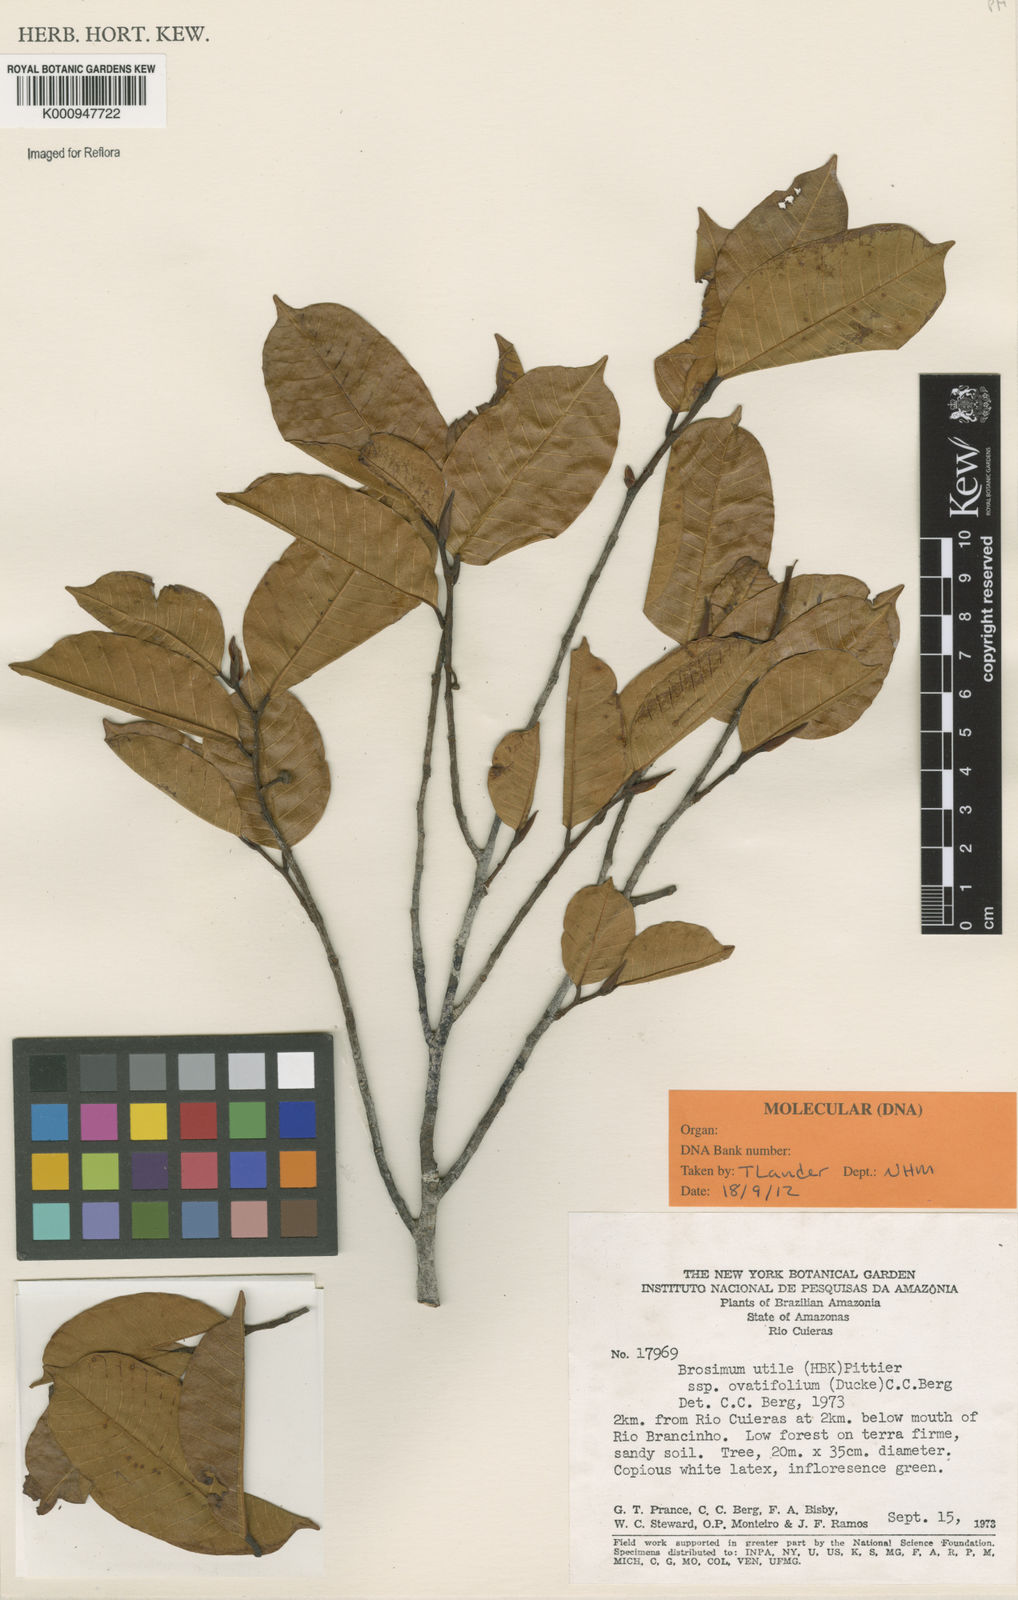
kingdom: Plantae
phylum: Tracheophyta
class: Magnoliopsida
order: Rosales
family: Moraceae
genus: Brosimum
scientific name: Brosimum utile
